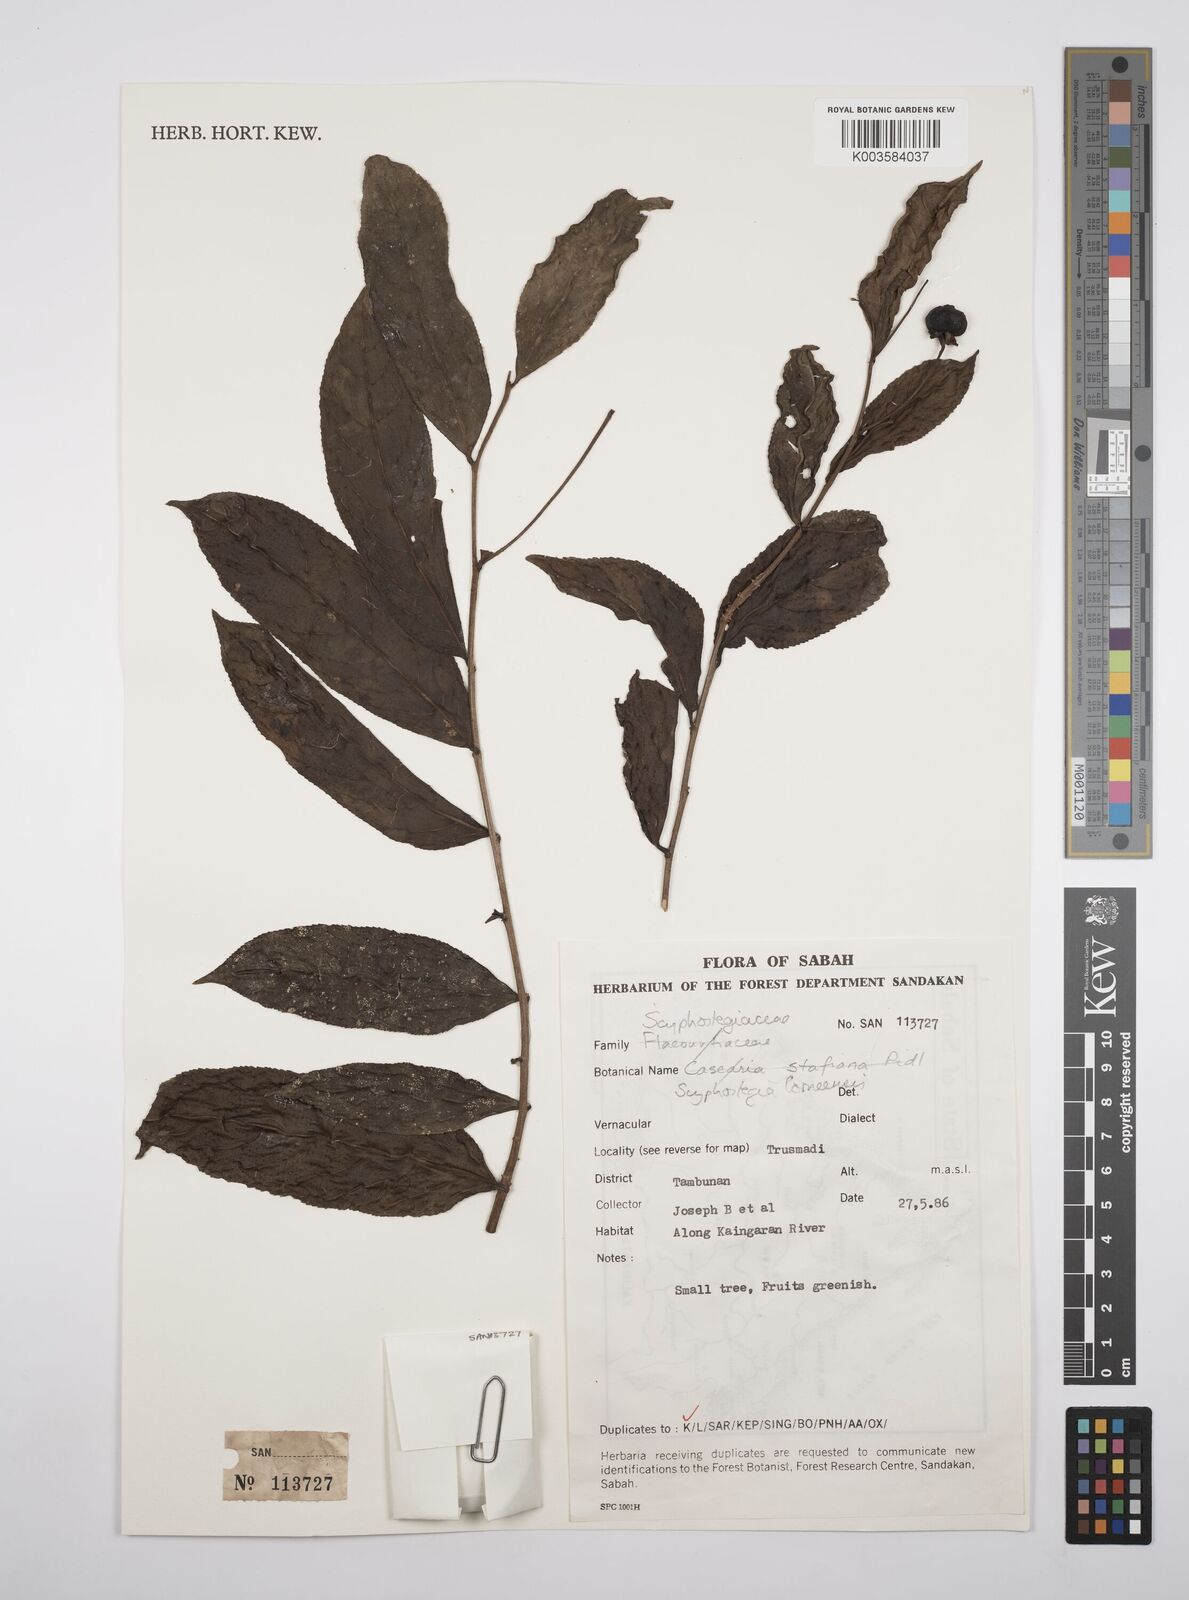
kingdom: Plantae
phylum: Tracheophyta
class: Magnoliopsida
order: Malpighiales
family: Salicaceae
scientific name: Salicaceae
